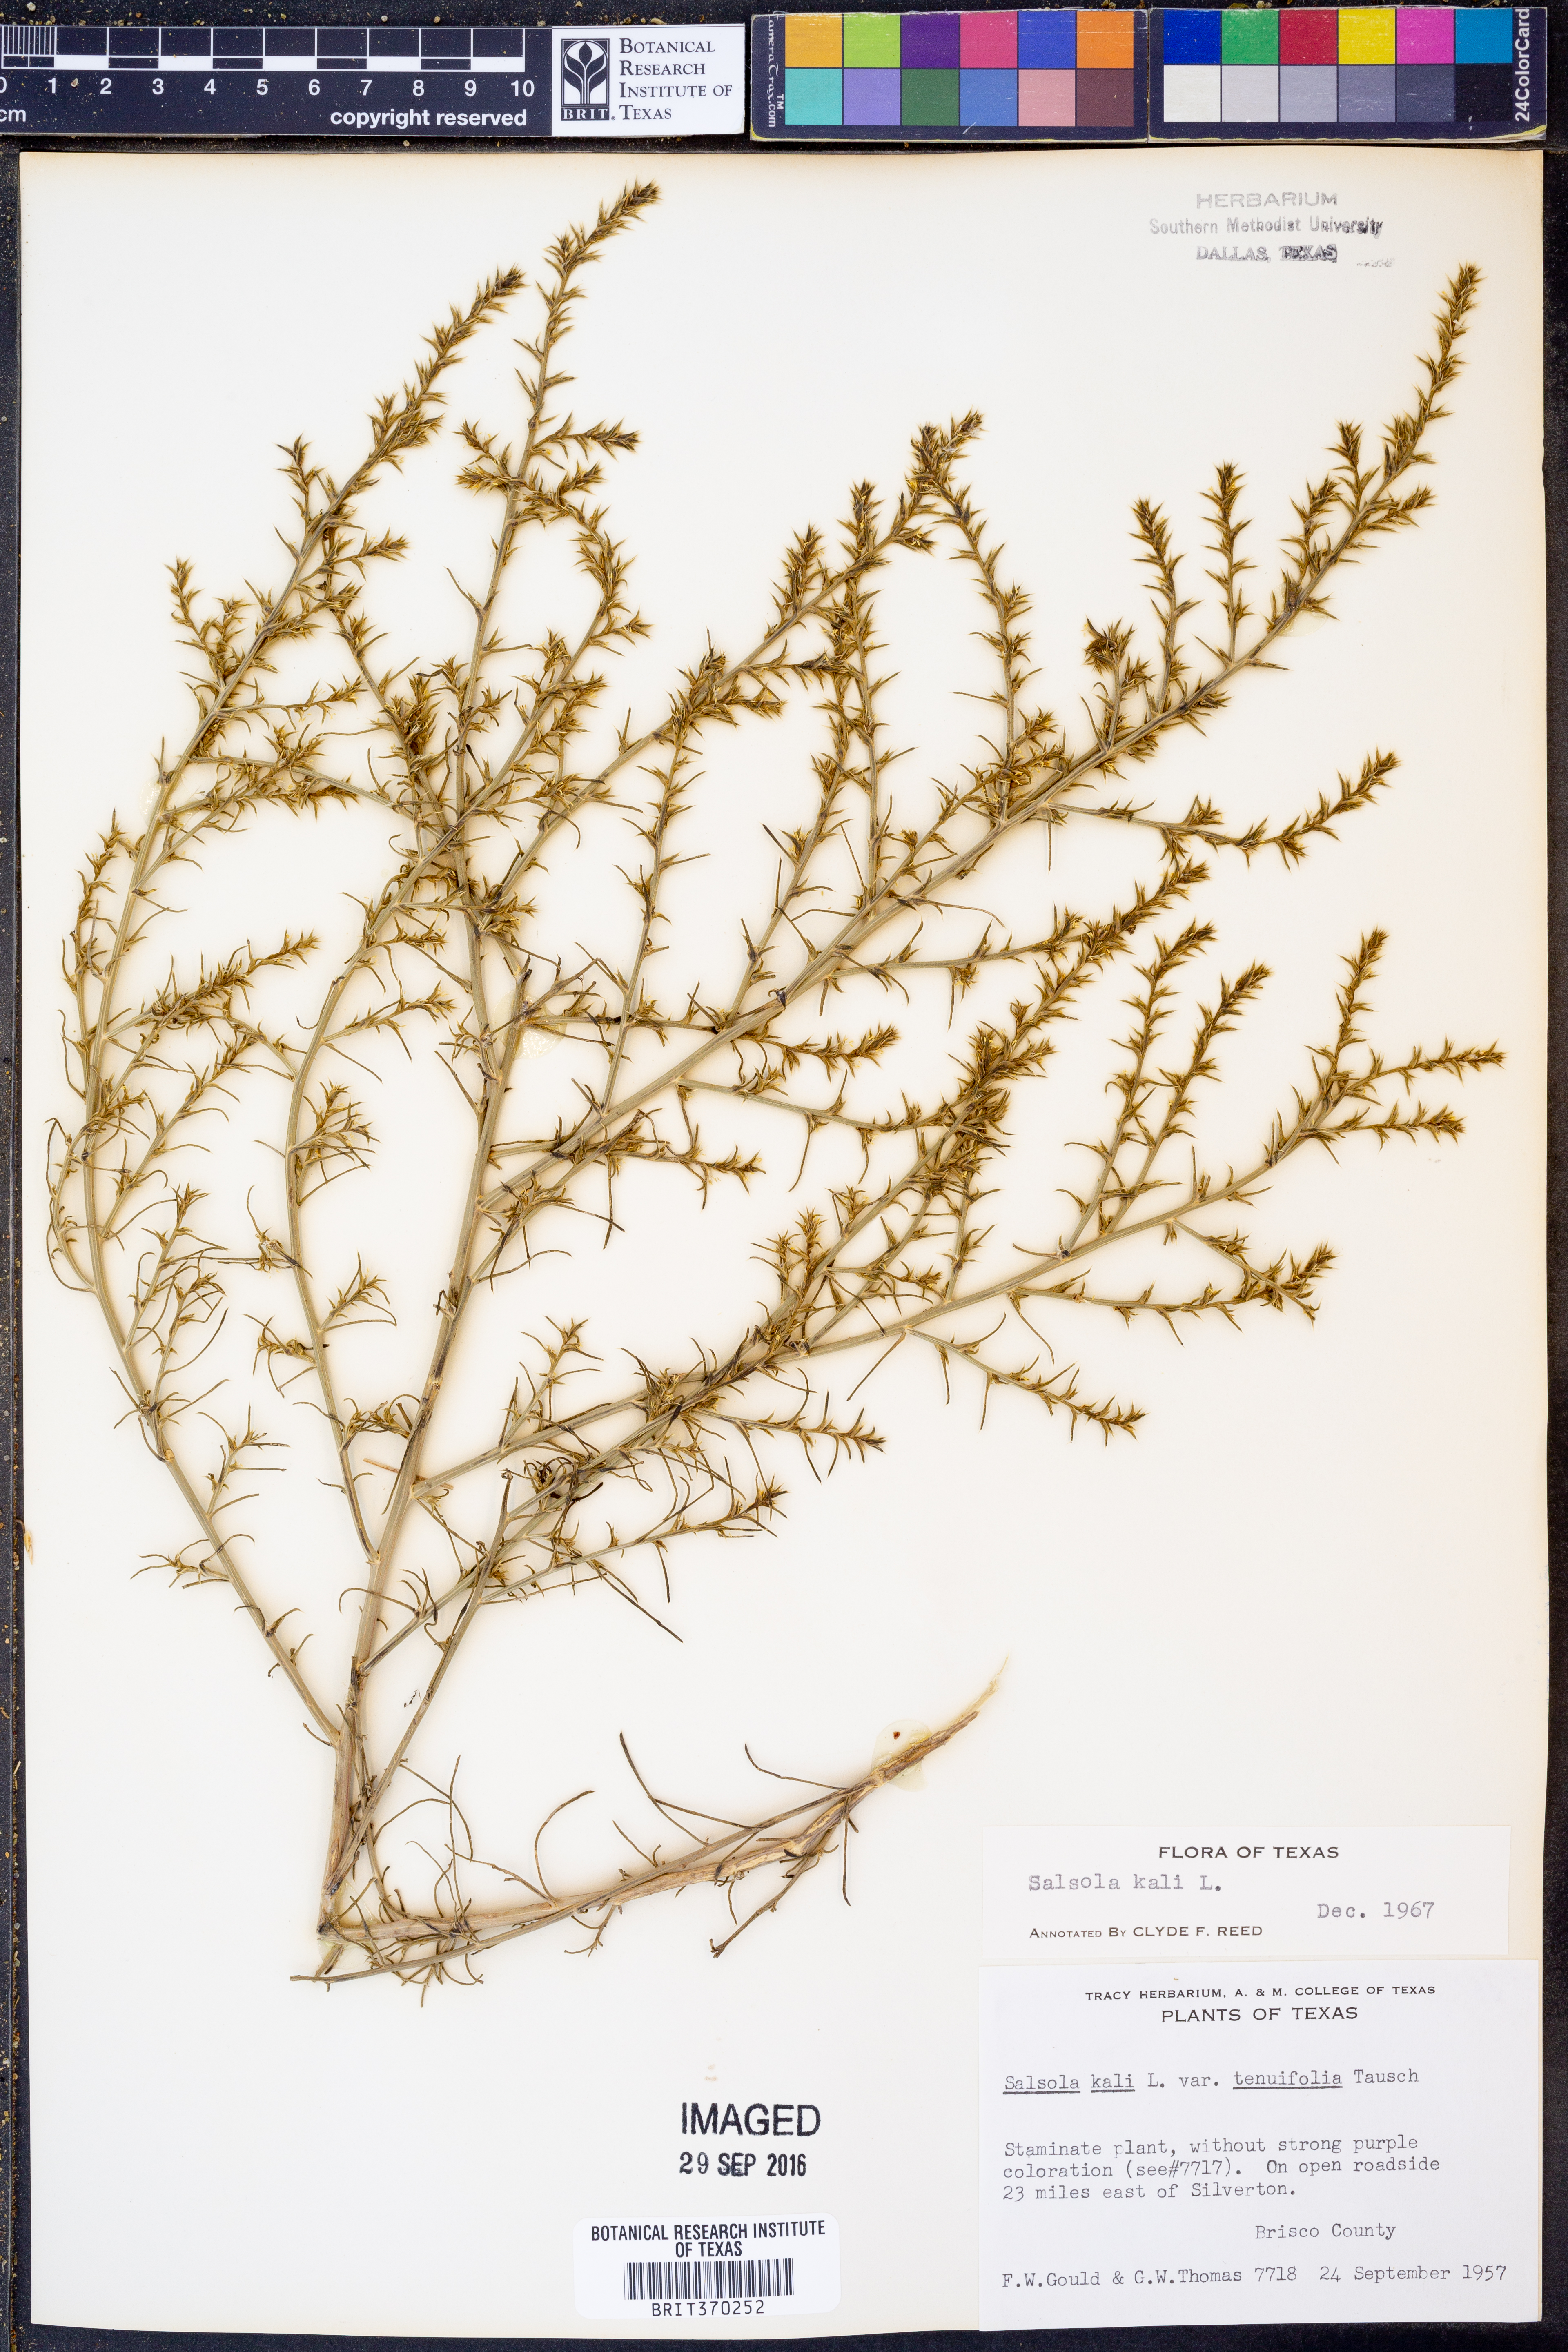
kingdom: Plantae
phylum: Tracheophyta
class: Magnoliopsida
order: Caryophyllales
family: Amaranthaceae
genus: Salsola
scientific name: Salsola tragus
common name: Prickly russian thistle
